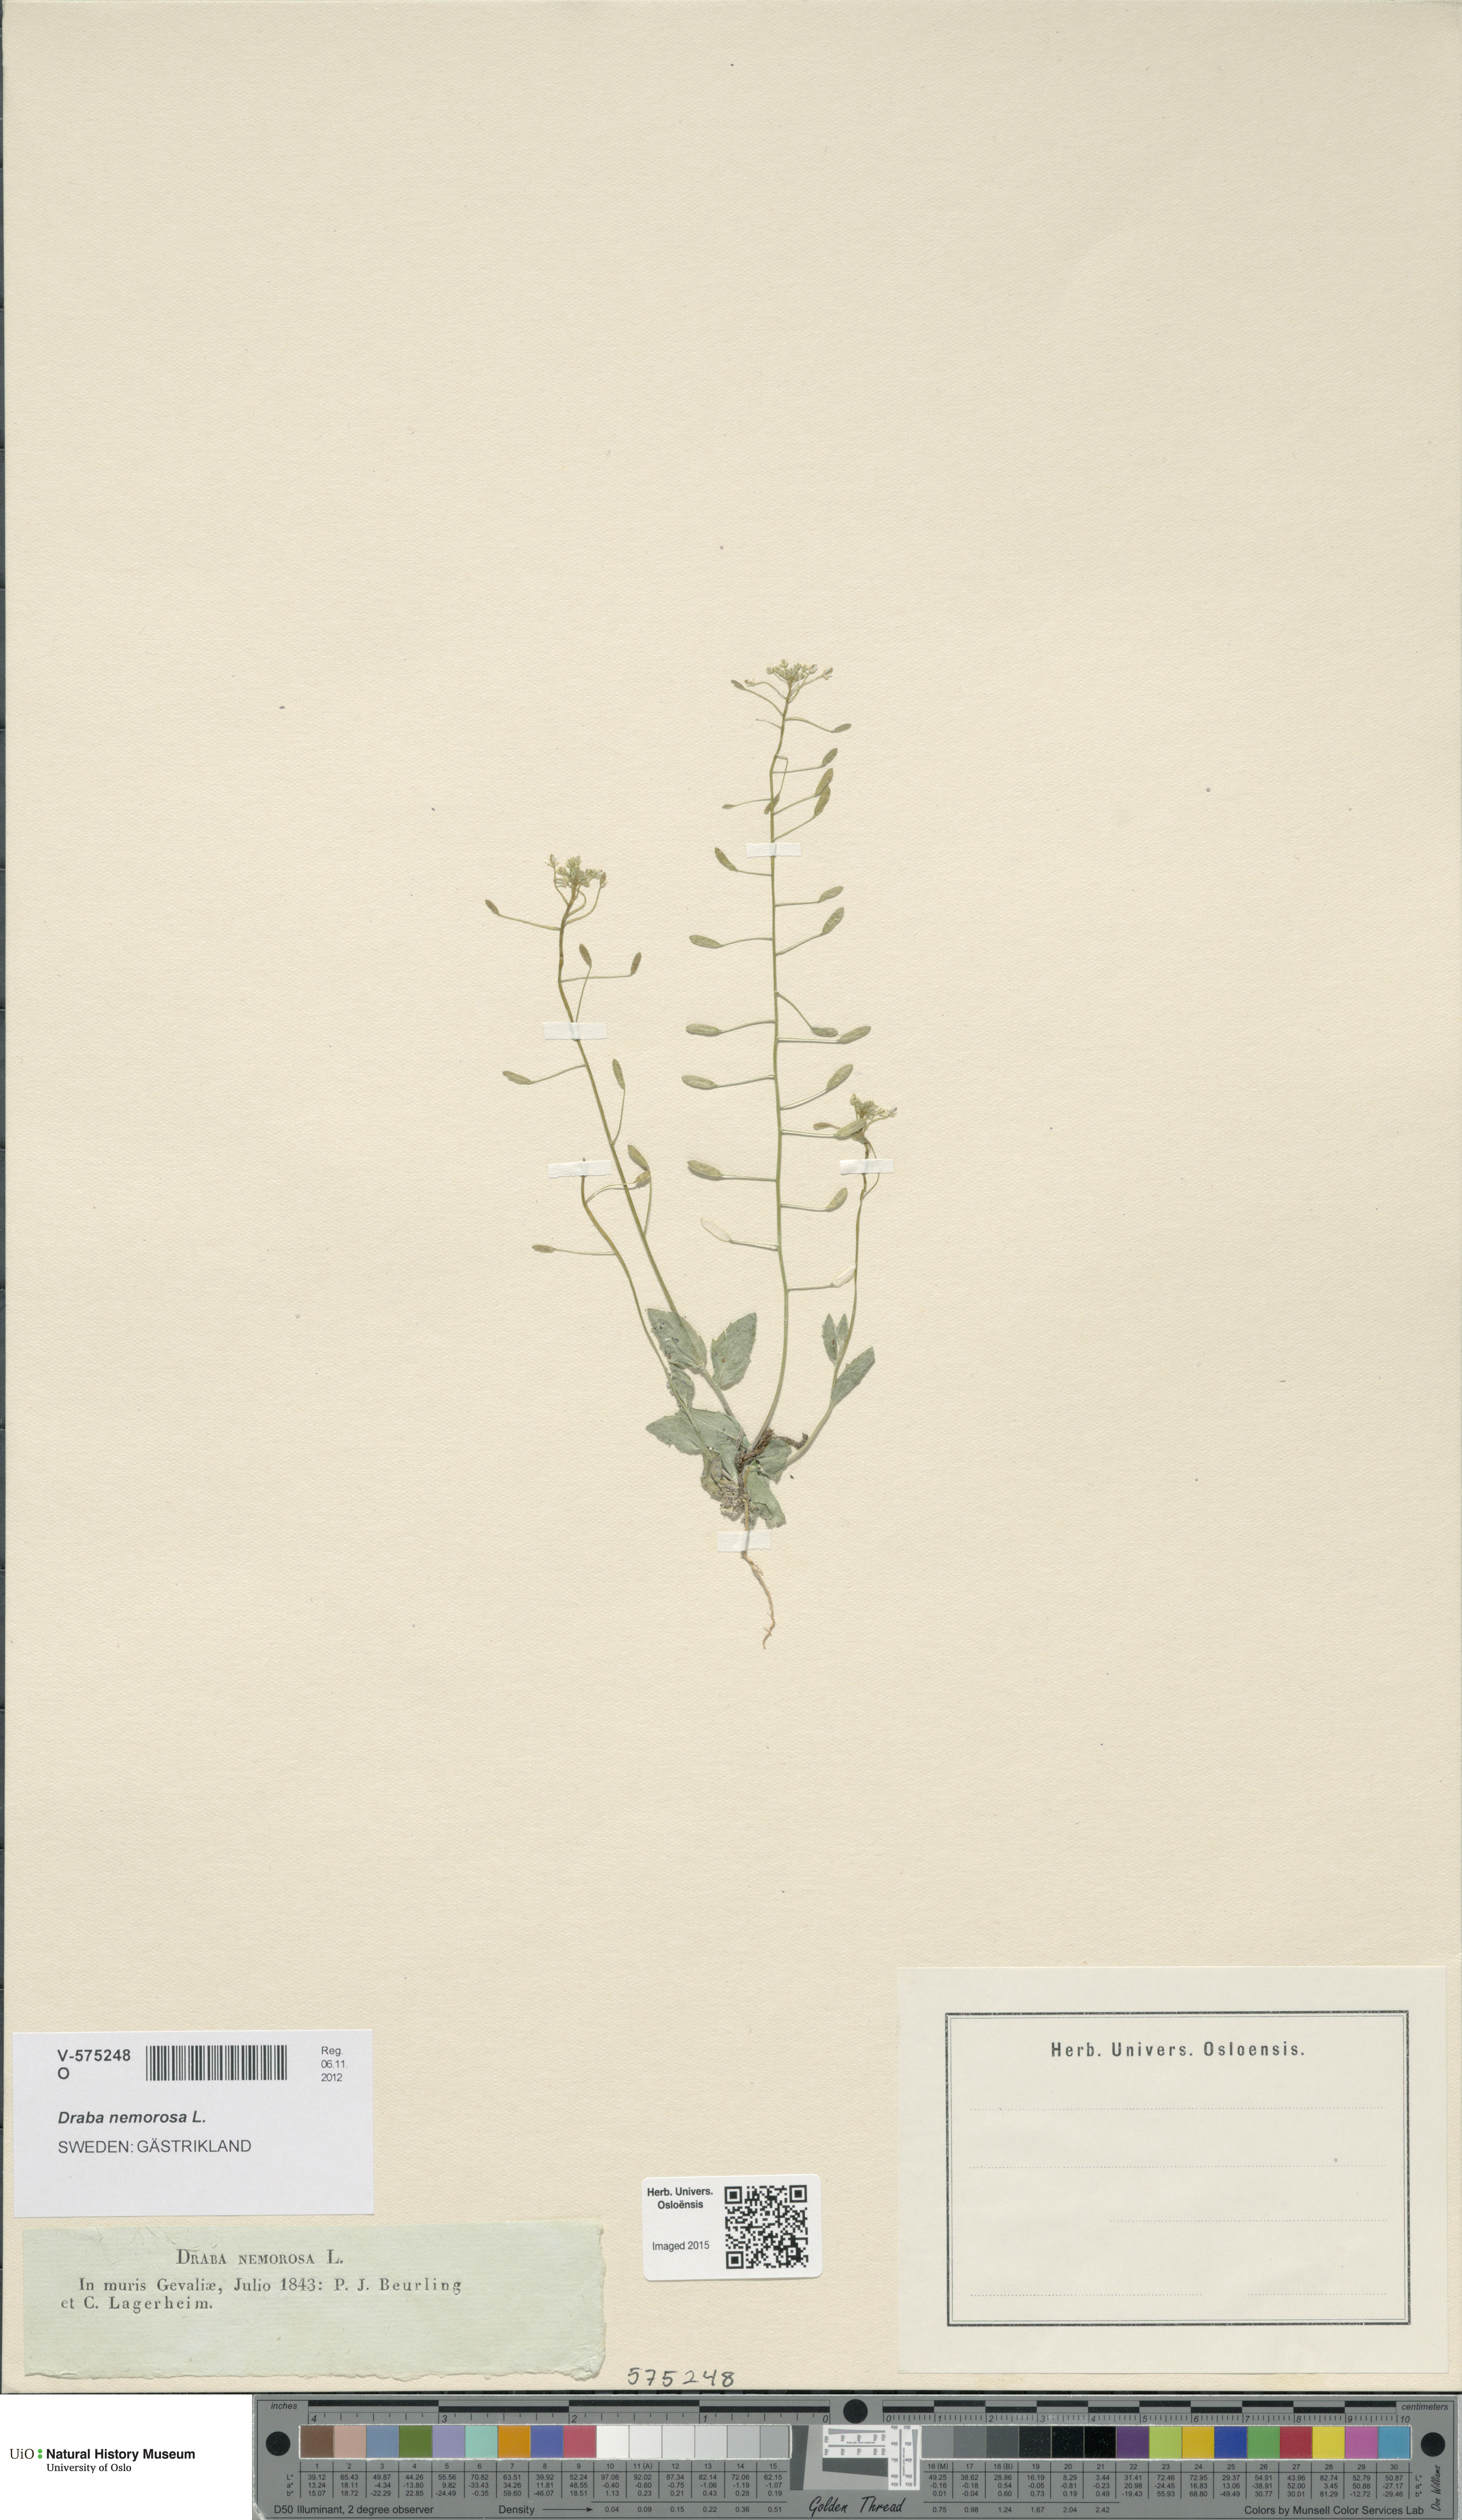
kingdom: Plantae
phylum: Tracheophyta
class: Magnoliopsida
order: Brassicales
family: Brassicaceae
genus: Draba
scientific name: Draba nemorosa
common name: Wood whitlow-grass
